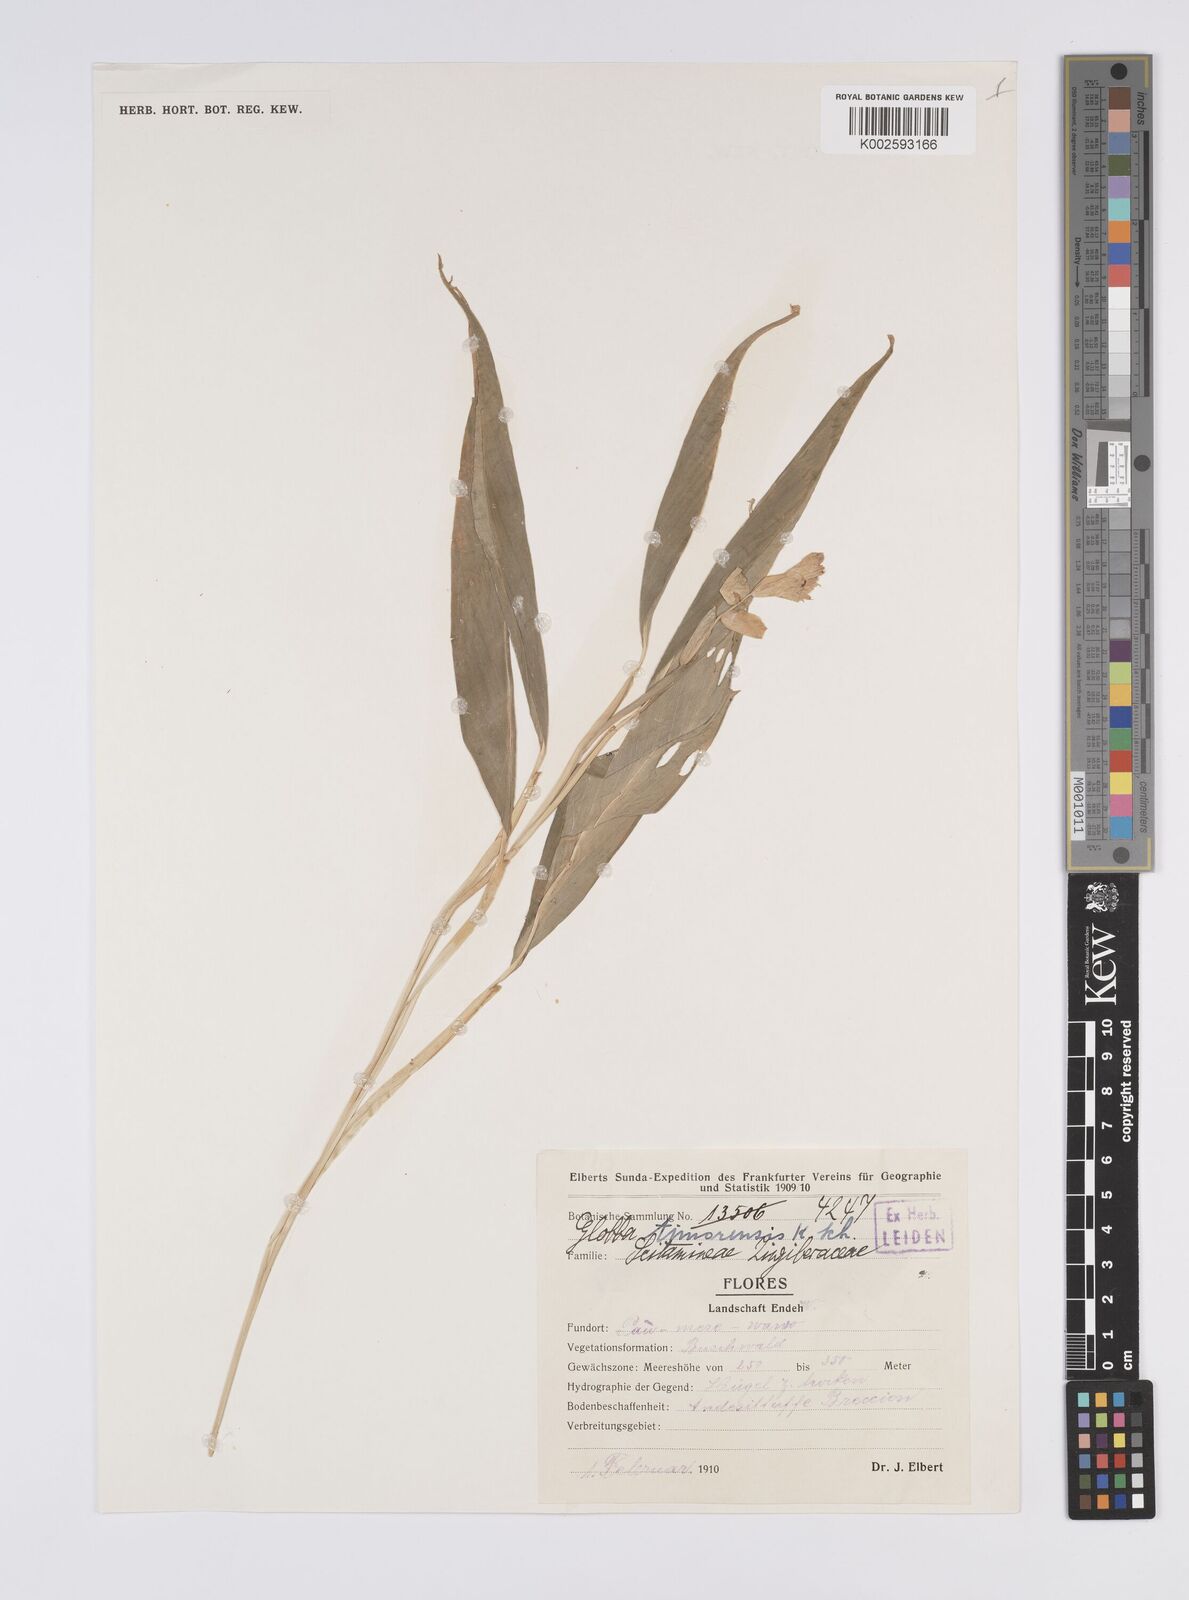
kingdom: Plantae
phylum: Tracheophyta
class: Liliopsida
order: Zingiberales
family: Zingiberaceae
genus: Globba
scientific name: Globba marantina
